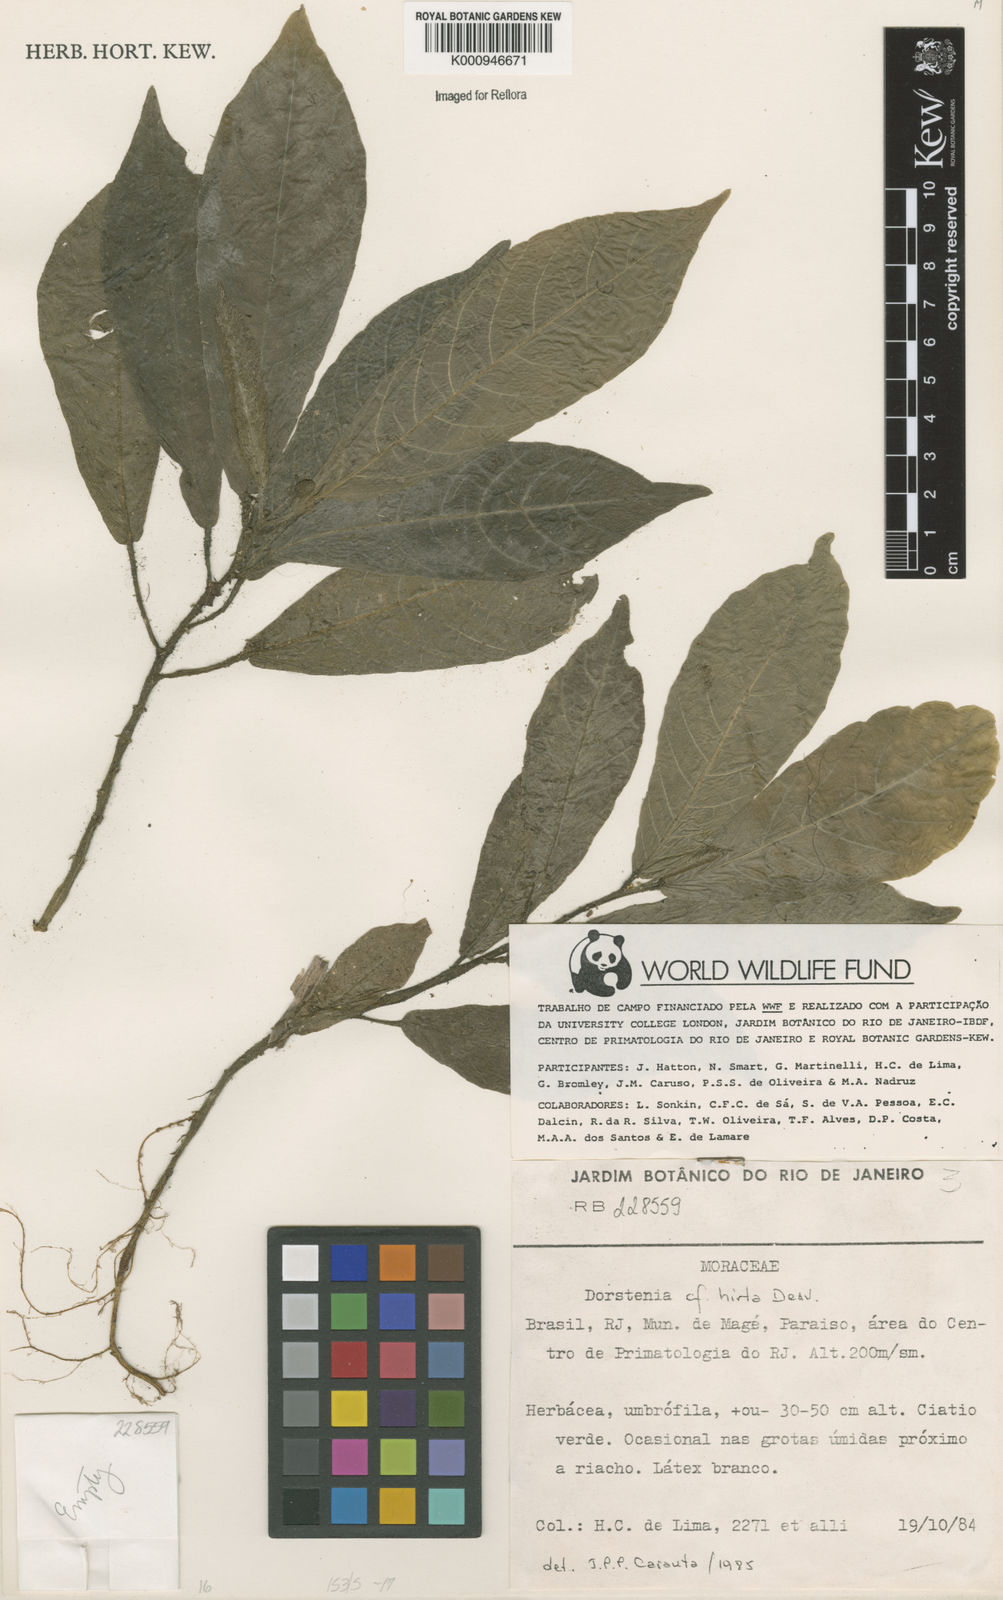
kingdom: Plantae
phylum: Tracheophyta
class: Magnoliopsida
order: Rosales
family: Moraceae
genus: Dorstenia
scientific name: Dorstenia hirta
